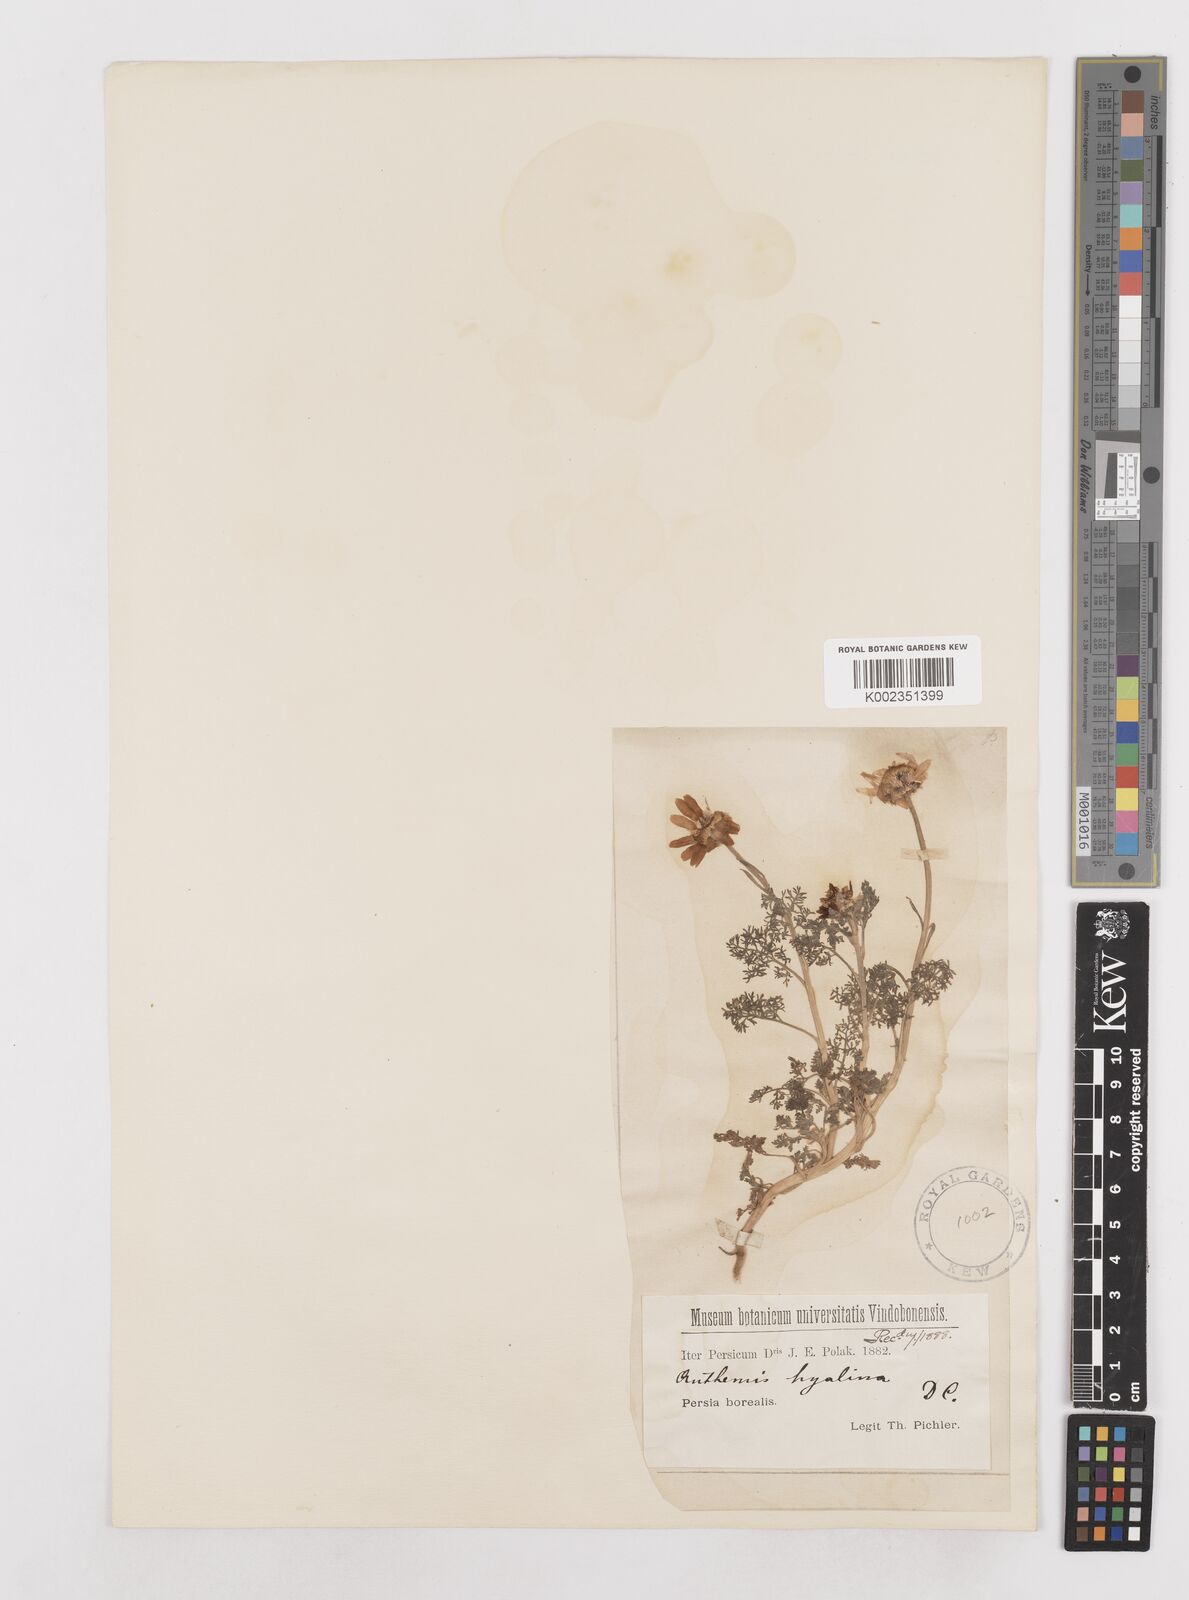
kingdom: Plantae
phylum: Tracheophyta
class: Magnoliopsida
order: Asterales
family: Asteraceae
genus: Anthemis
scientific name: Anthemis hyalina
